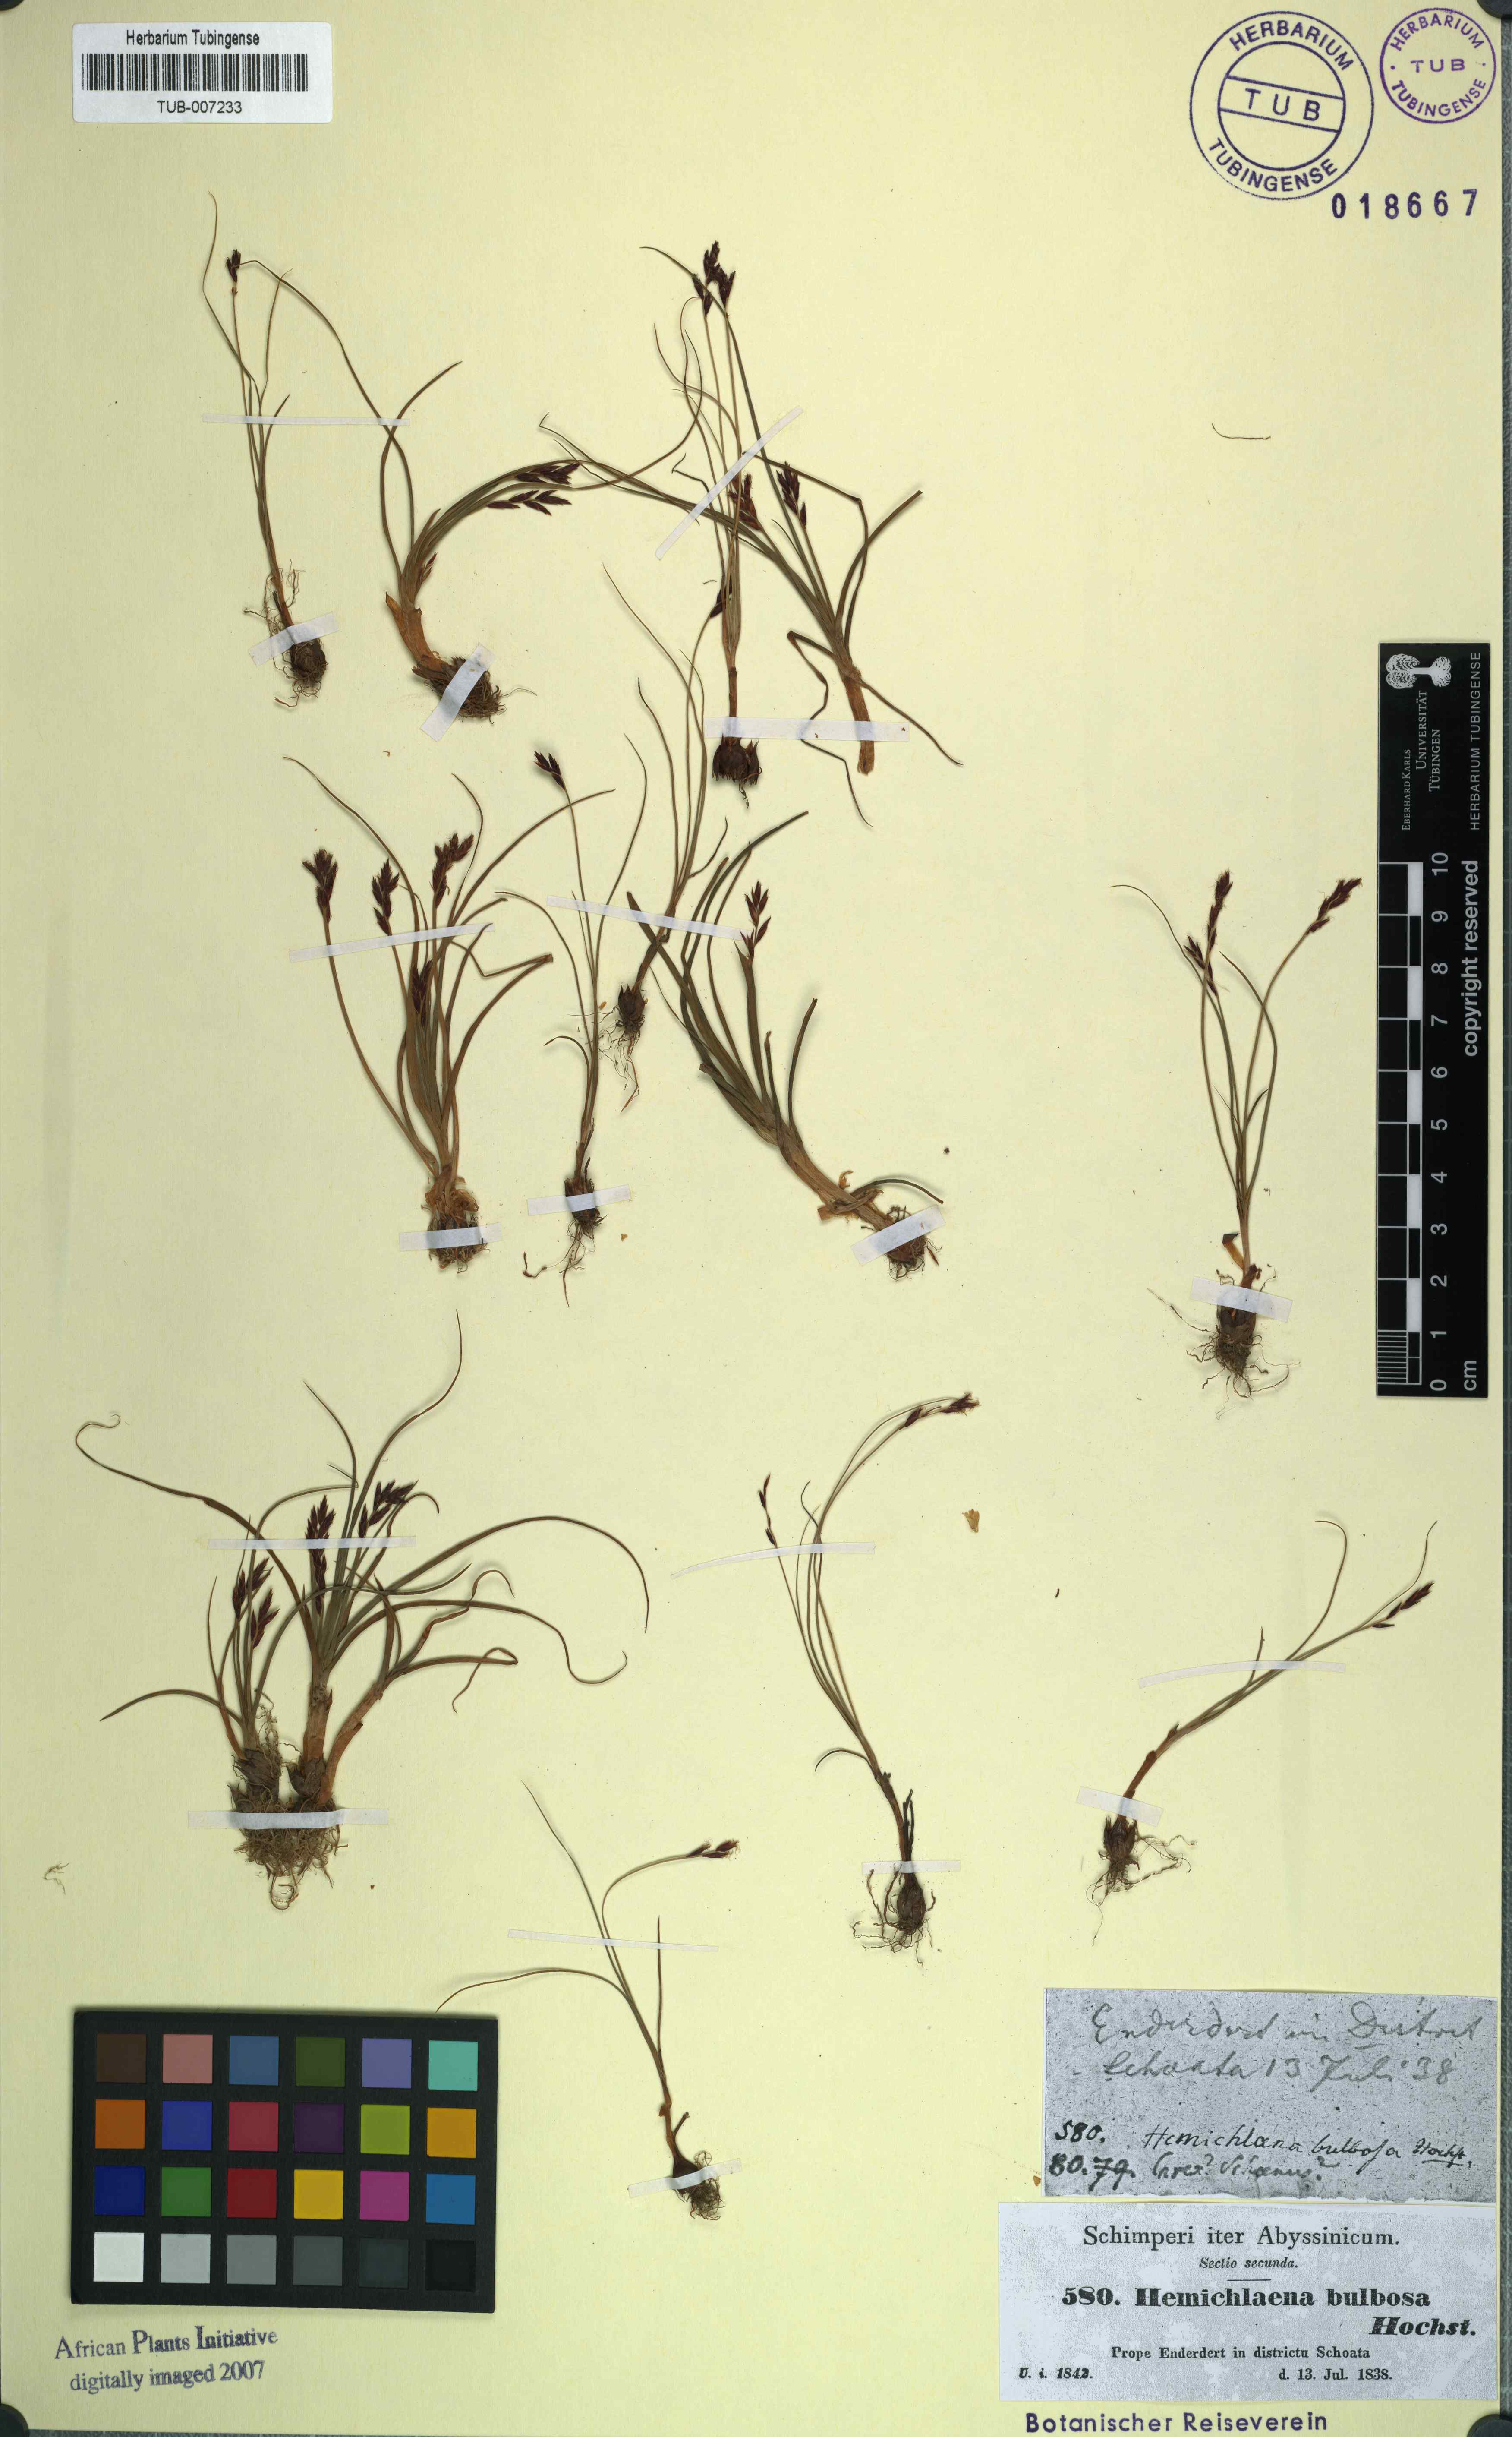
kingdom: Plantae
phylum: Tracheophyta
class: Liliopsida
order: Poales
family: Cyperaceae
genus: Cyperus
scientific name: Cyperus blysmoides
